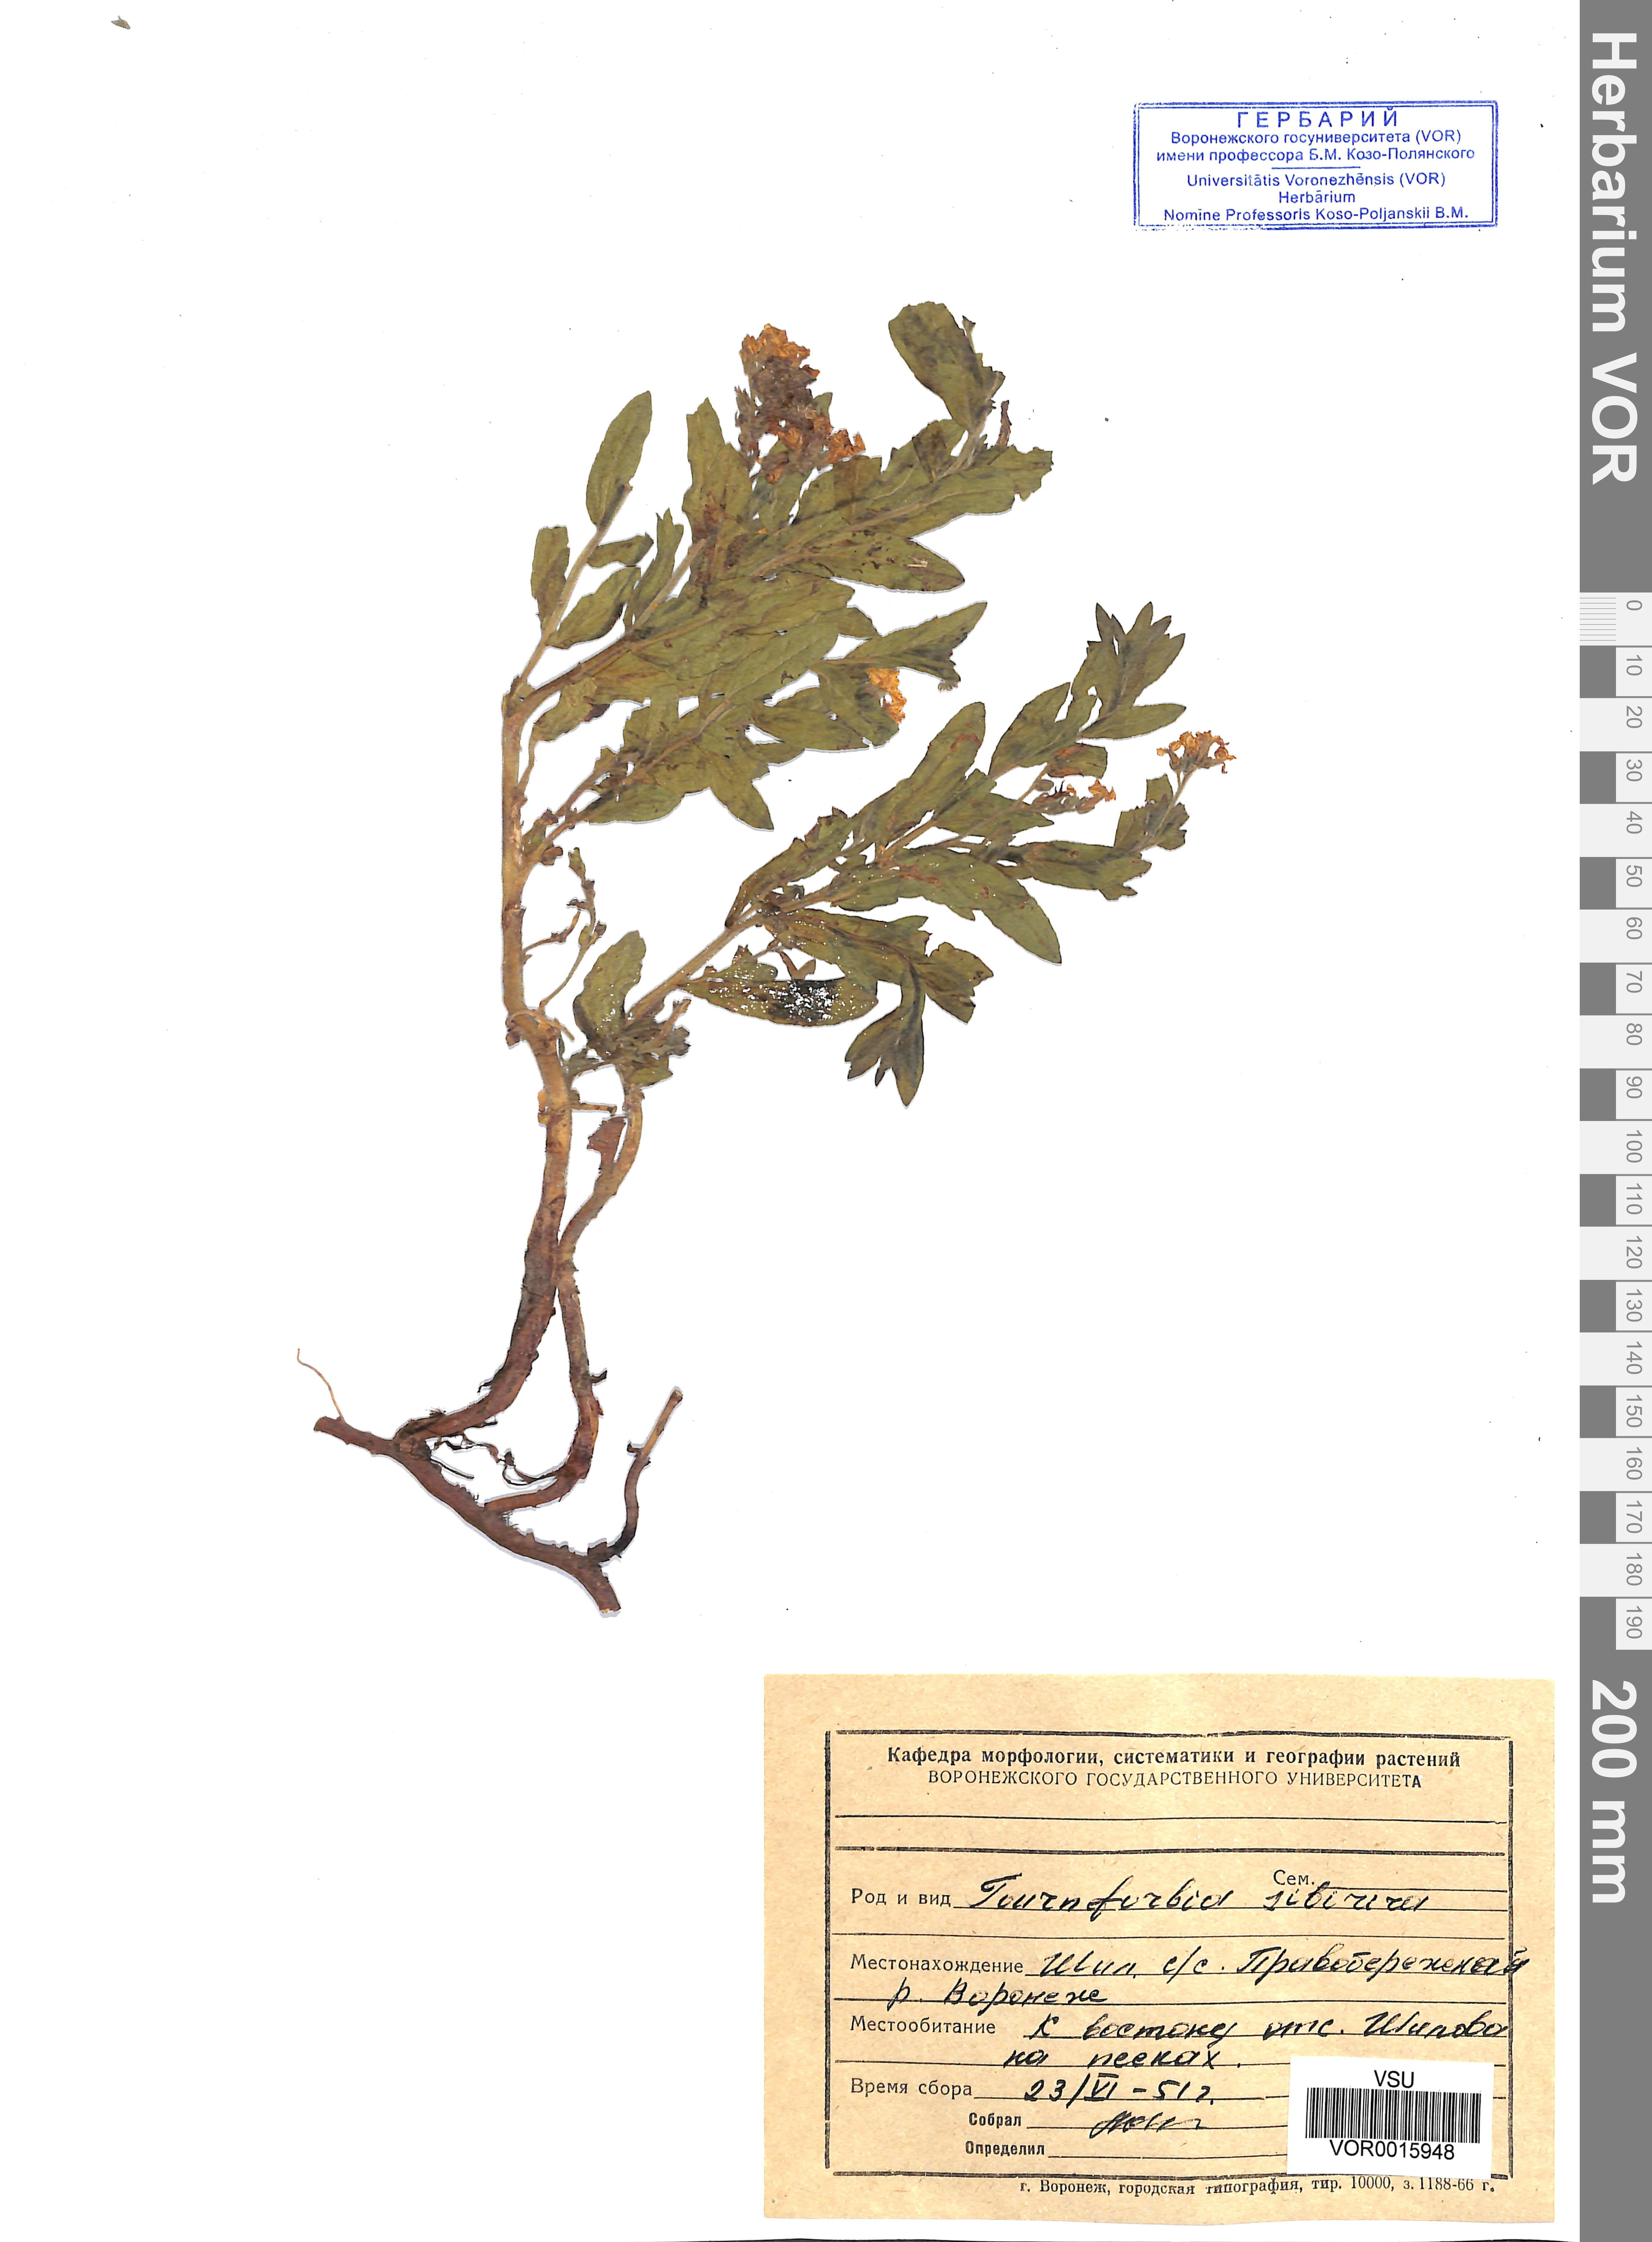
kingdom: Plantae
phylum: Tracheophyta
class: Magnoliopsida
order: Boraginales
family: Heliotropiaceae
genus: Tournefortia
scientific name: Tournefortia sibirica
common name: Siberian sea rosemary
